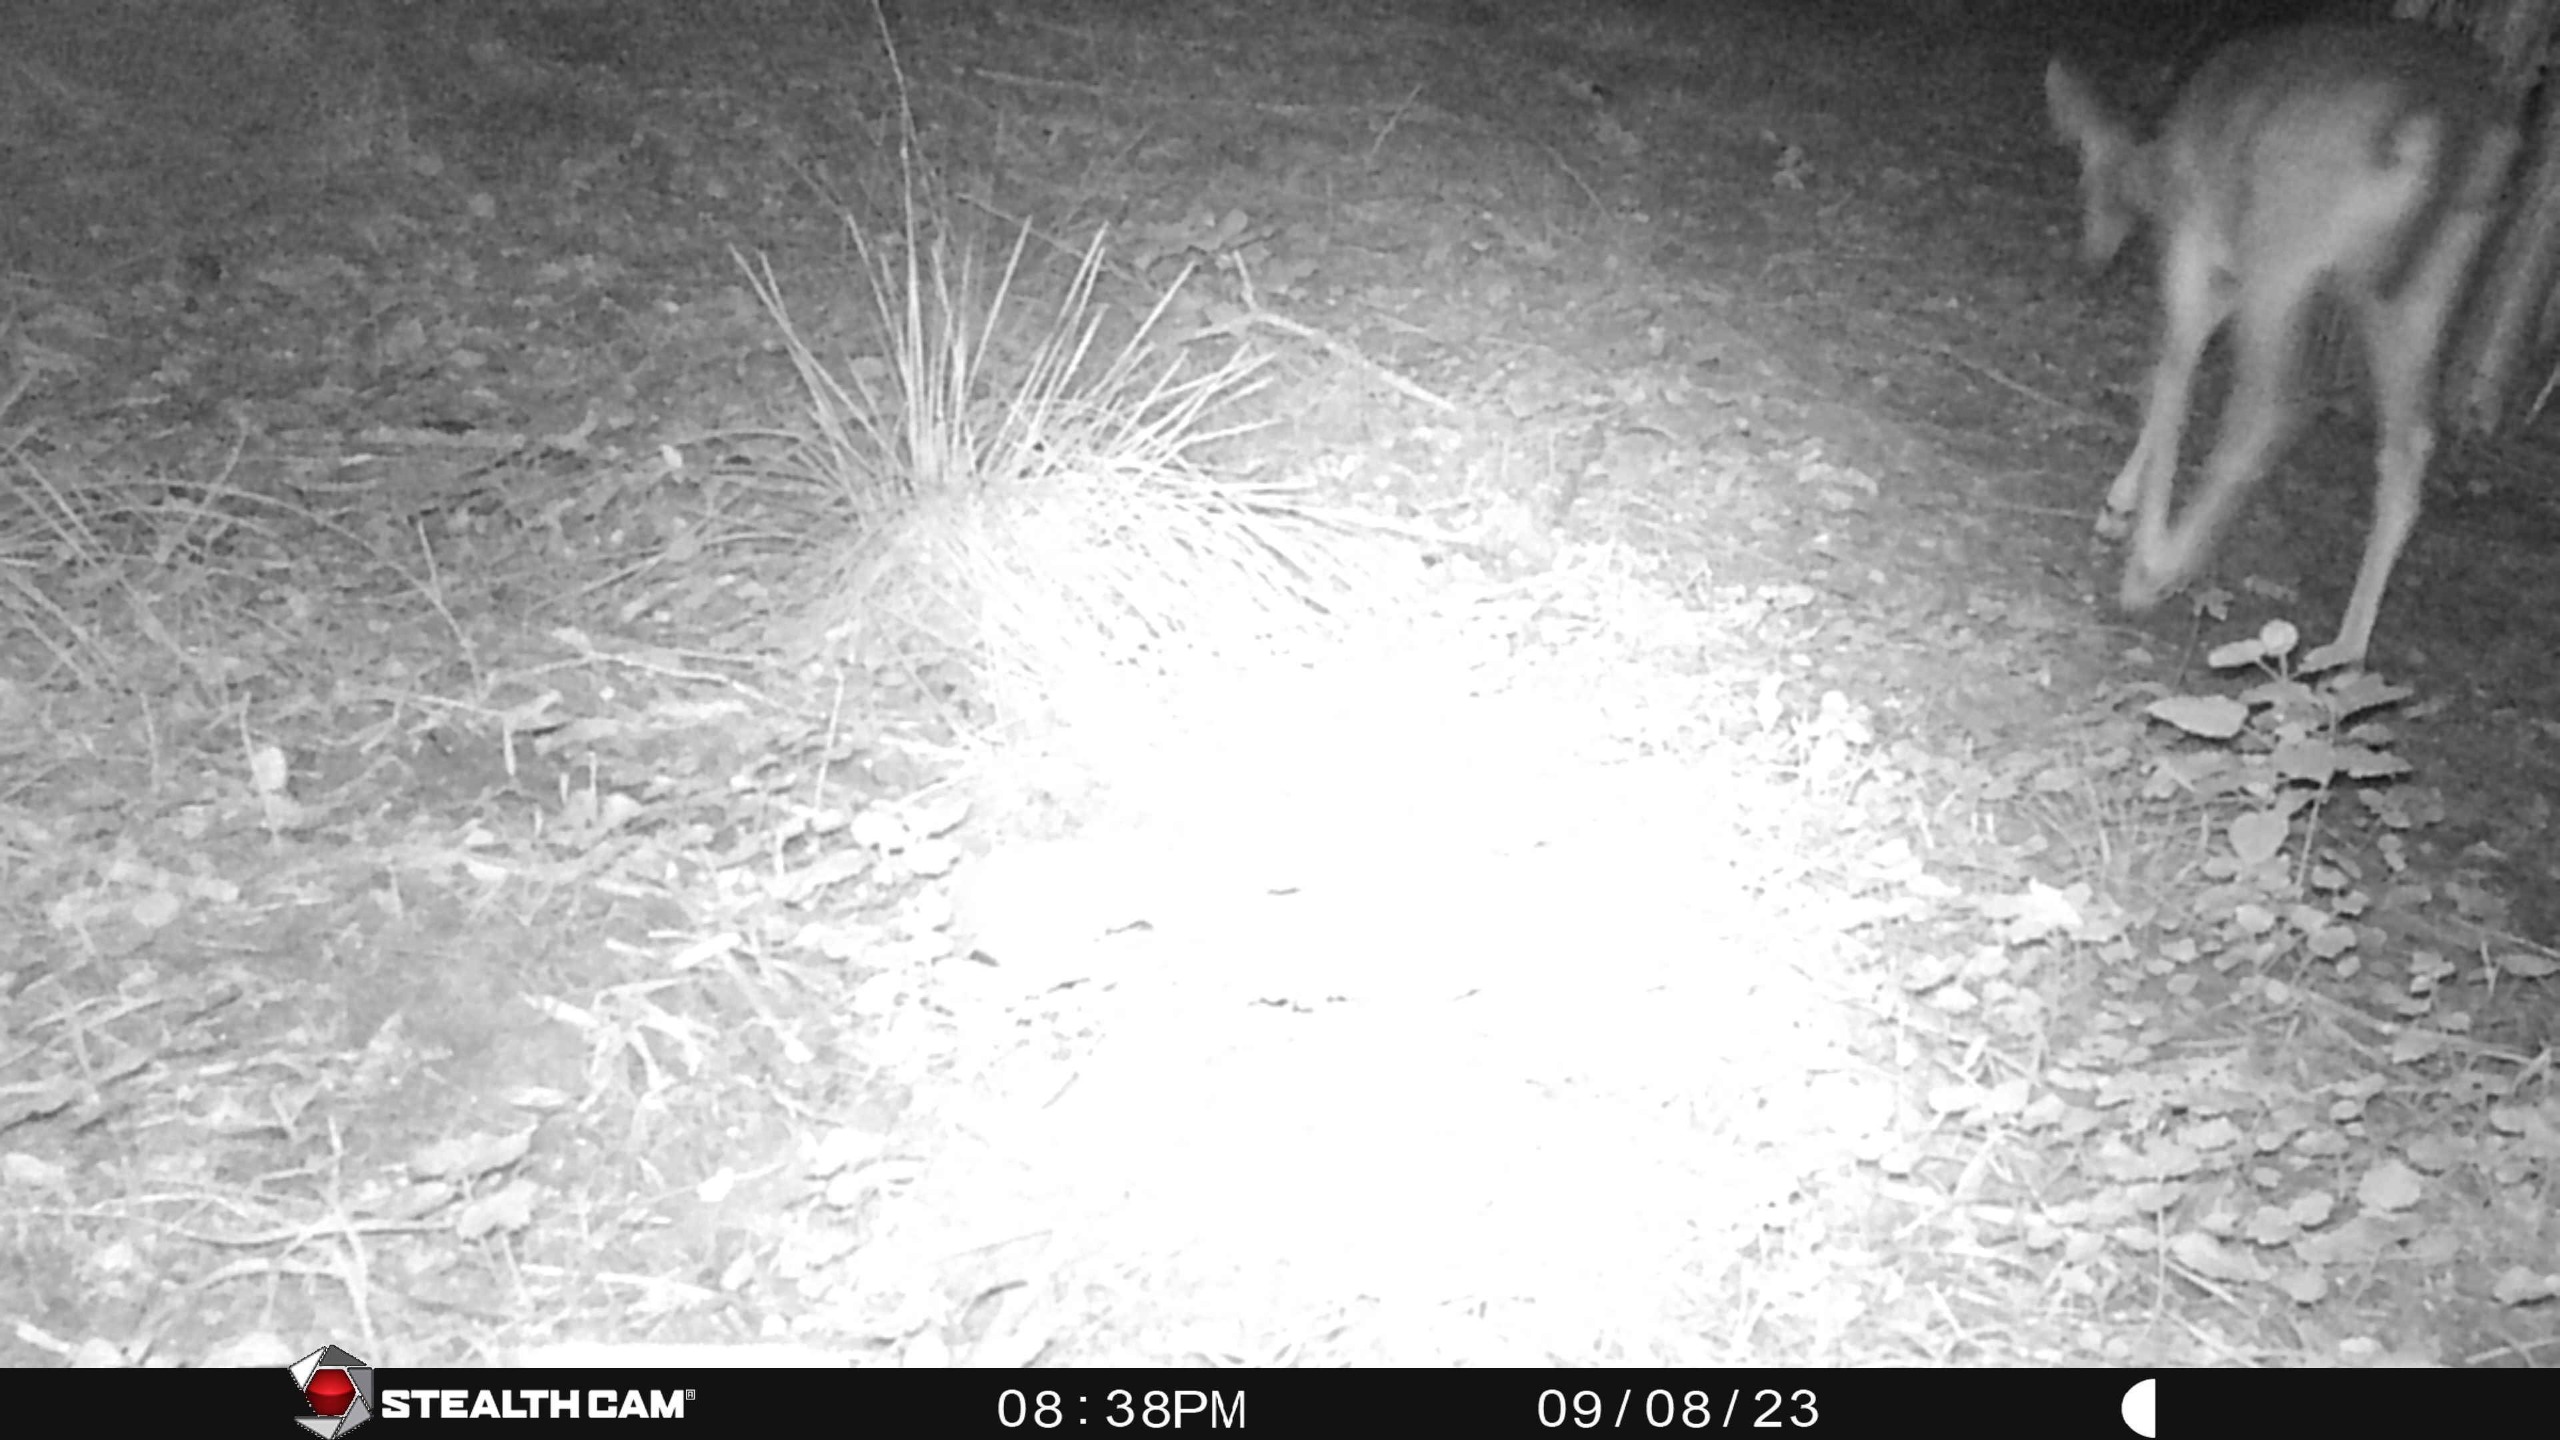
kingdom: Animalia
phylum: Chordata
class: Mammalia
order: Artiodactyla
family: Cervidae
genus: Dama
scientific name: Dama dama
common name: Dådyr
